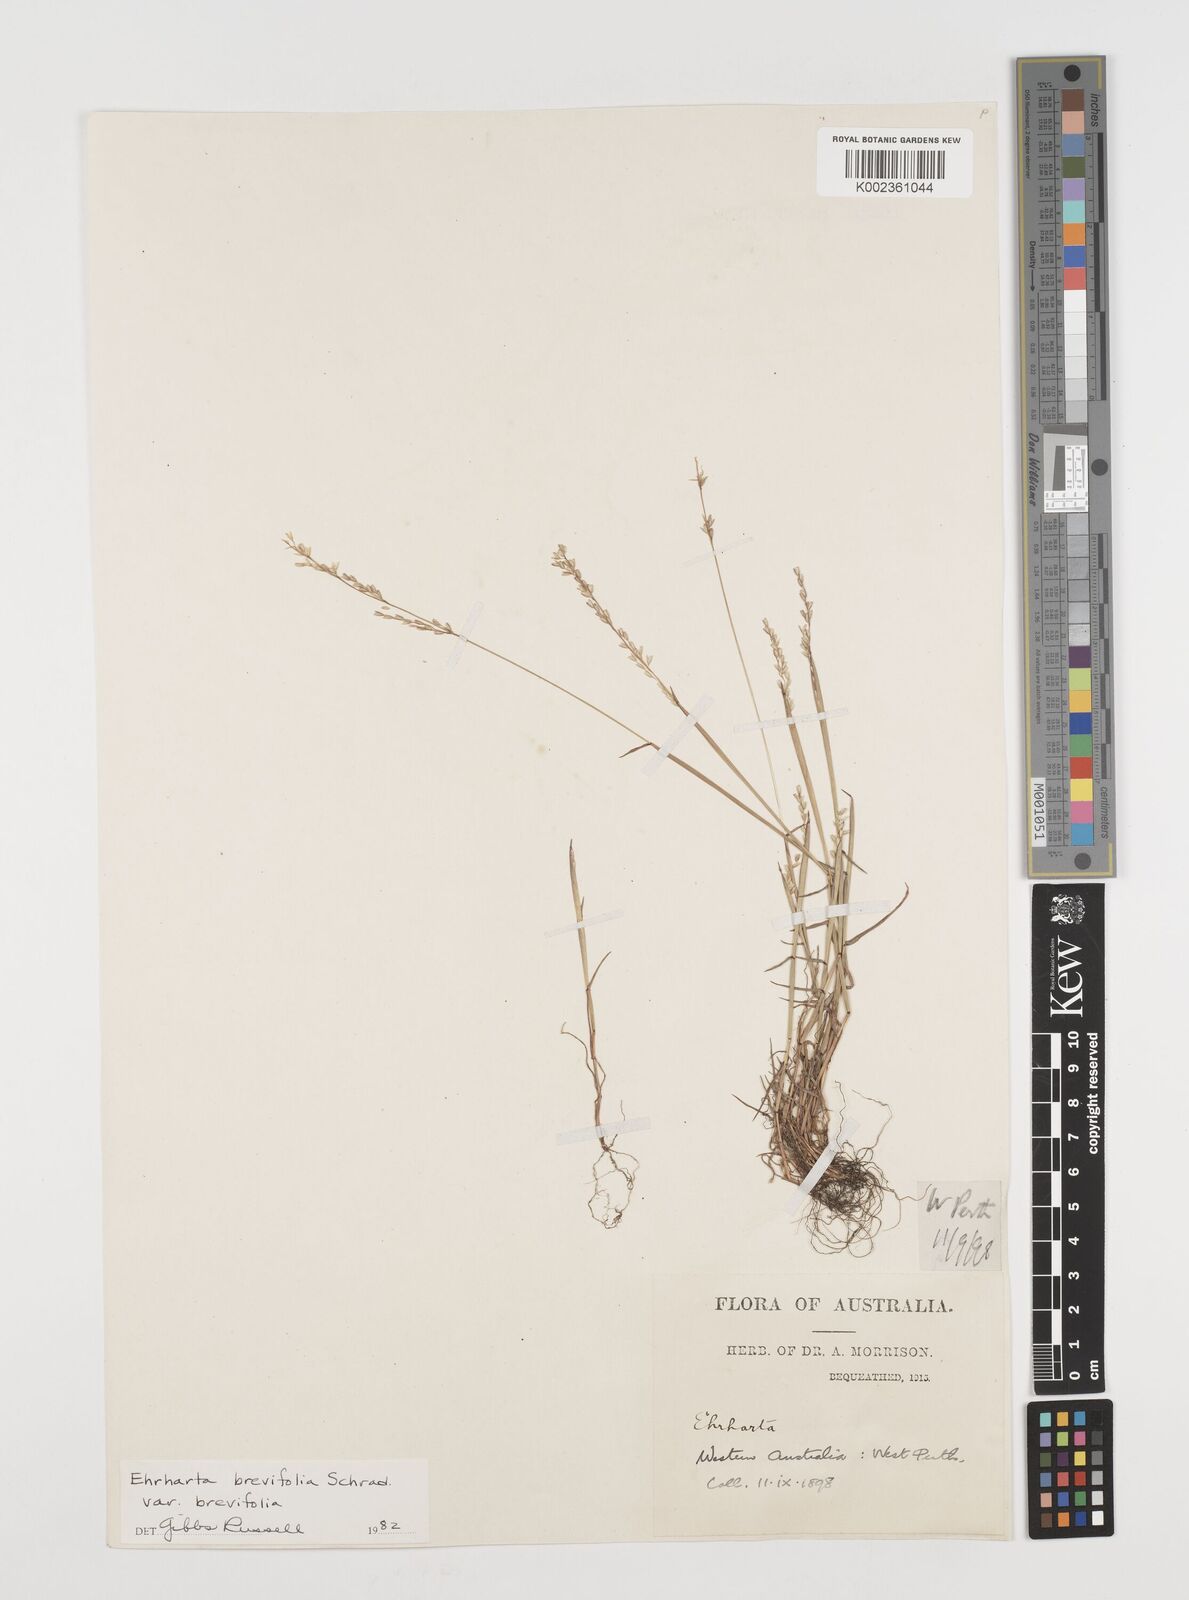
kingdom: Plantae
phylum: Tracheophyta
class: Liliopsida
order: Poales
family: Poaceae
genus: Ehrharta
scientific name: Ehrharta brevifolia
